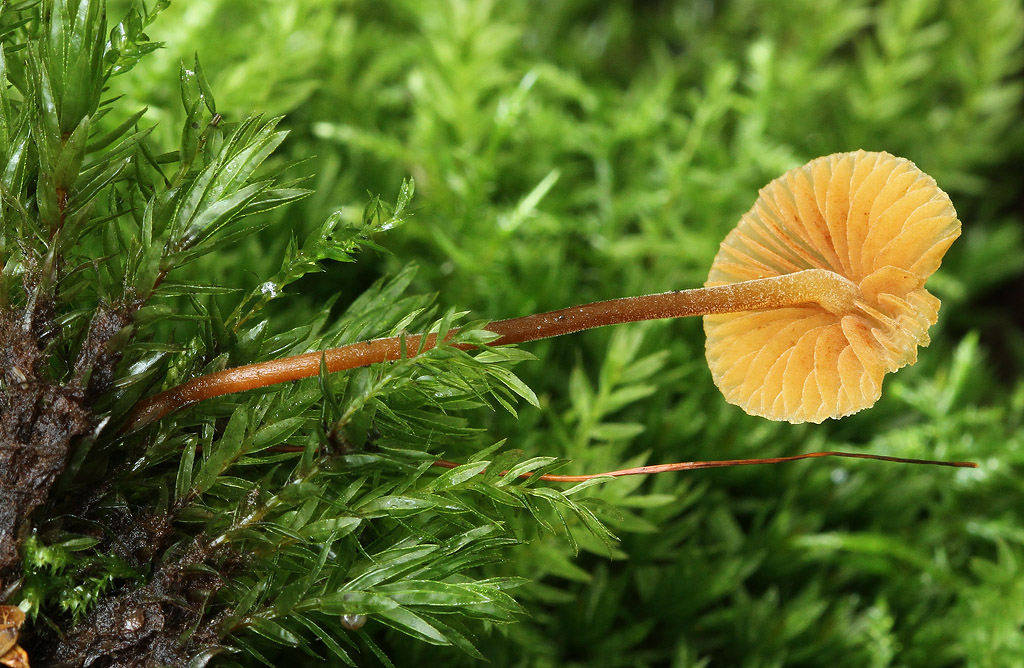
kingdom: Fungi
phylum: Basidiomycota
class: Agaricomycetes
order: Agaricales
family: Hymenogastraceae
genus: Galerina
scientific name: Galerina atkinsoniana
